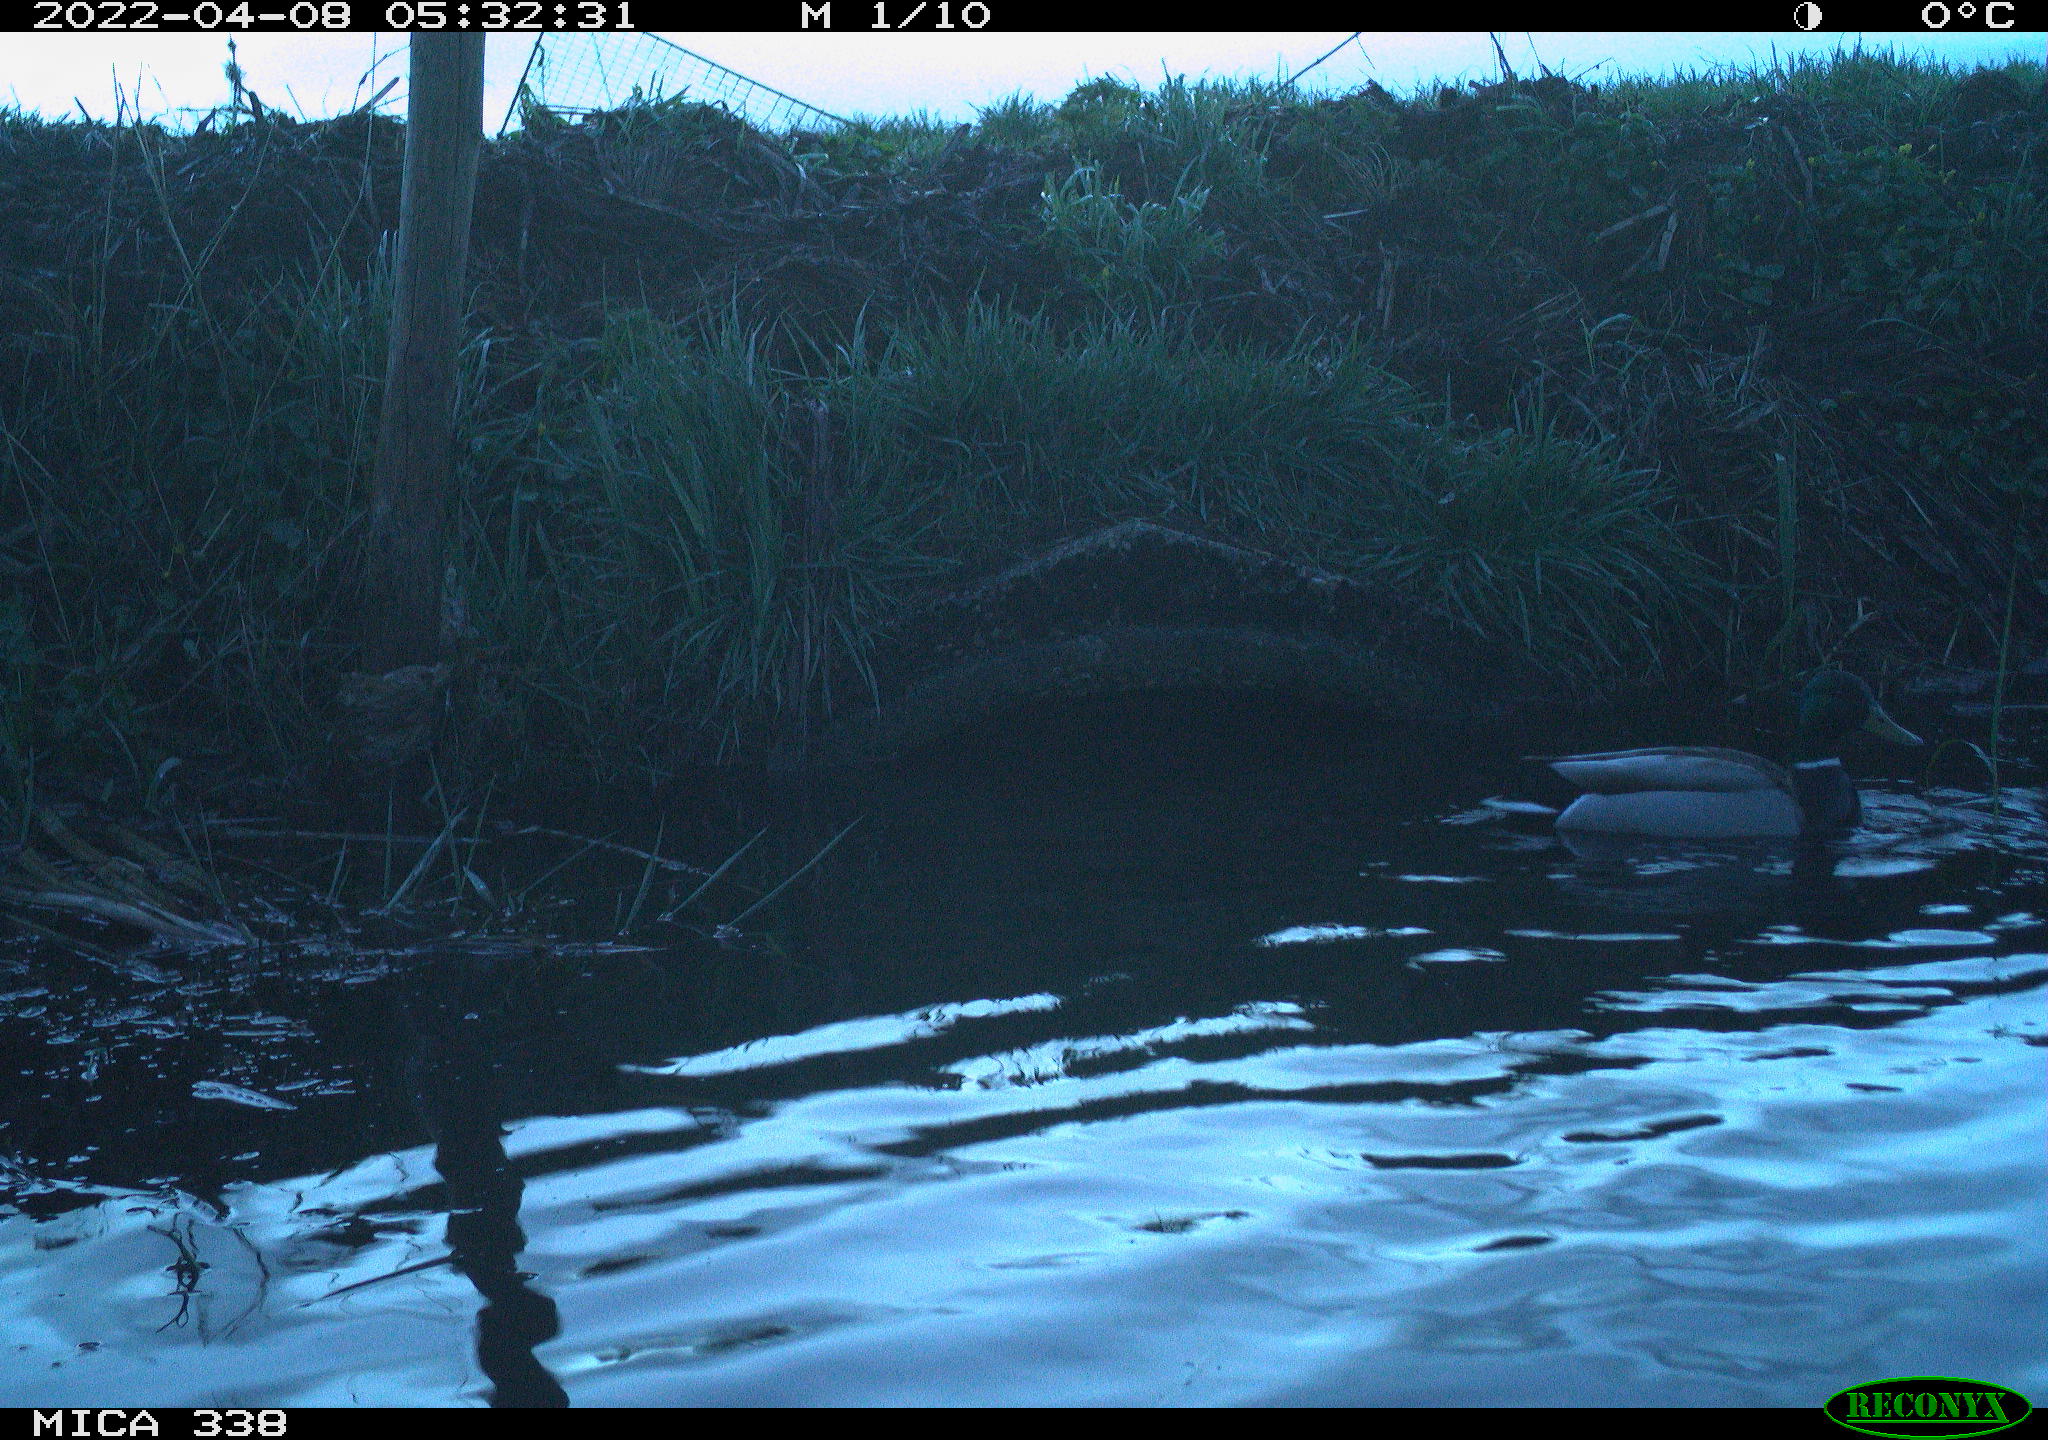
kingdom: Animalia
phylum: Chordata
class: Aves
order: Anseriformes
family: Anatidae
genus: Anas
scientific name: Anas platyrhynchos
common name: Mallard
